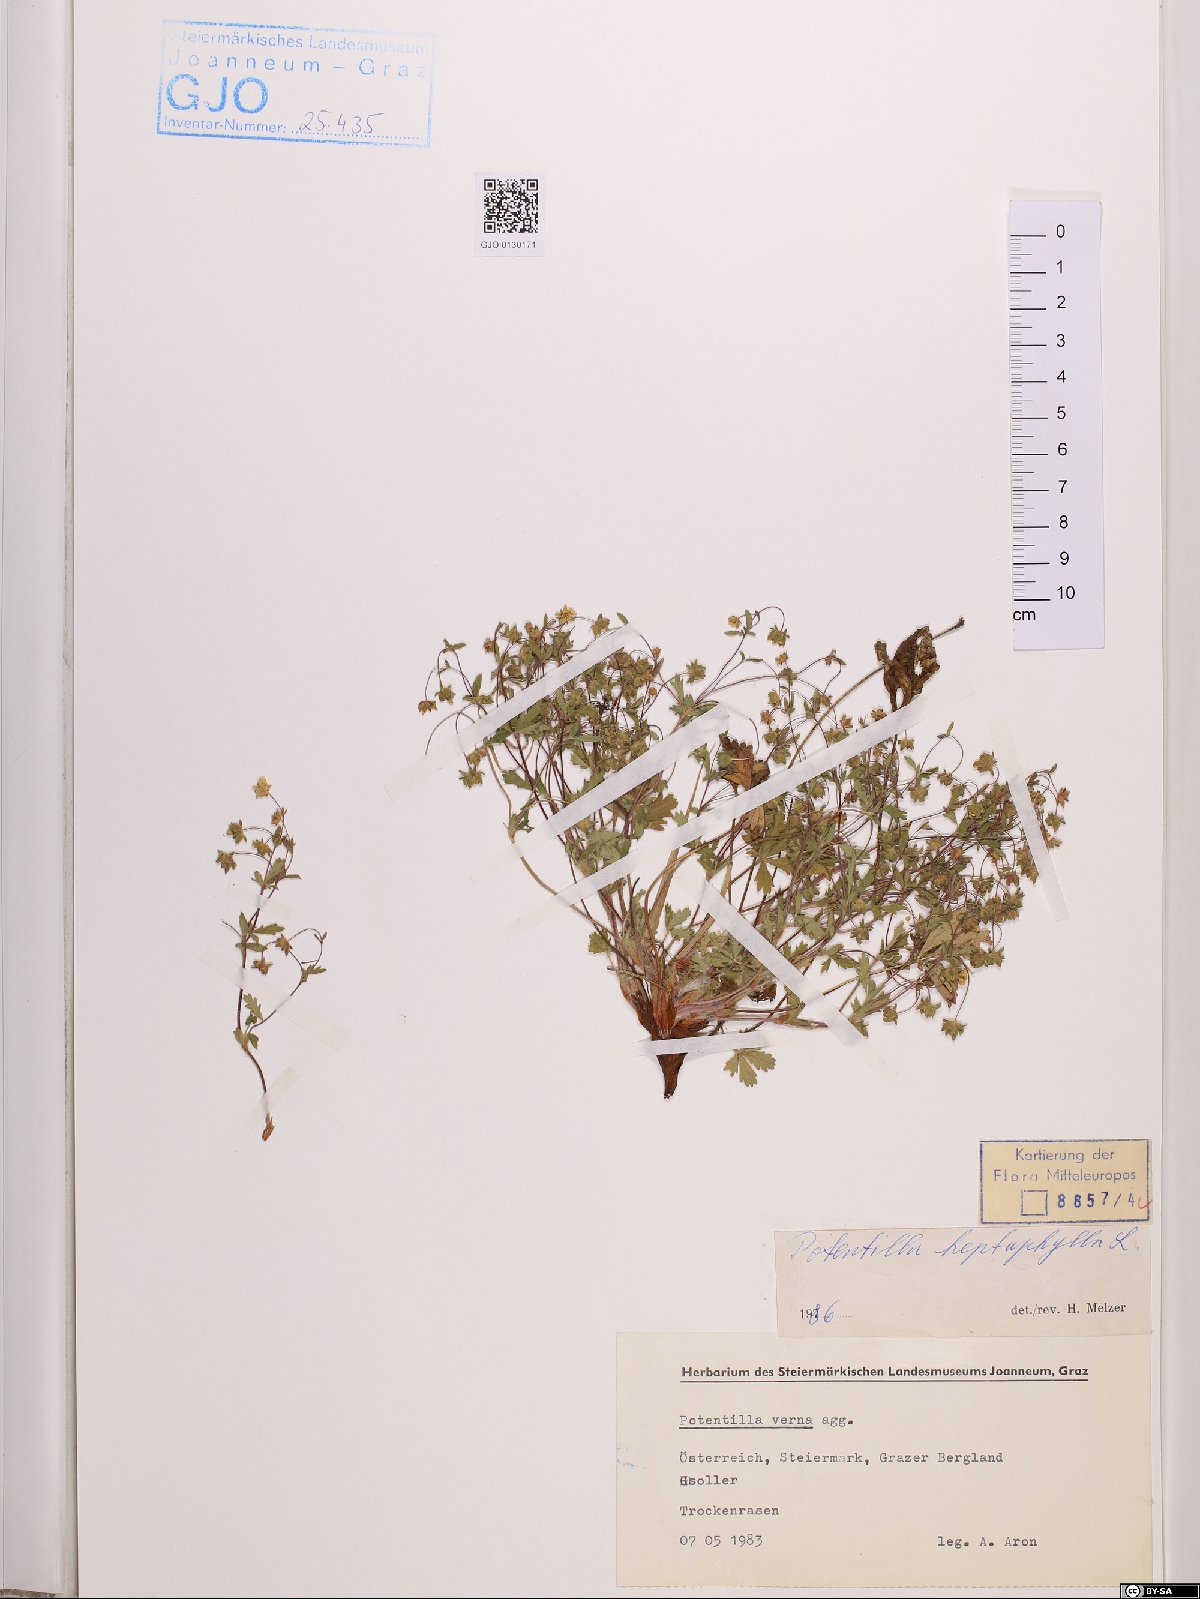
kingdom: Plantae
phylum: Tracheophyta
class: Magnoliopsida
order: Rosales
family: Rosaceae
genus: Potentilla
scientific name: Potentilla heptaphylla
